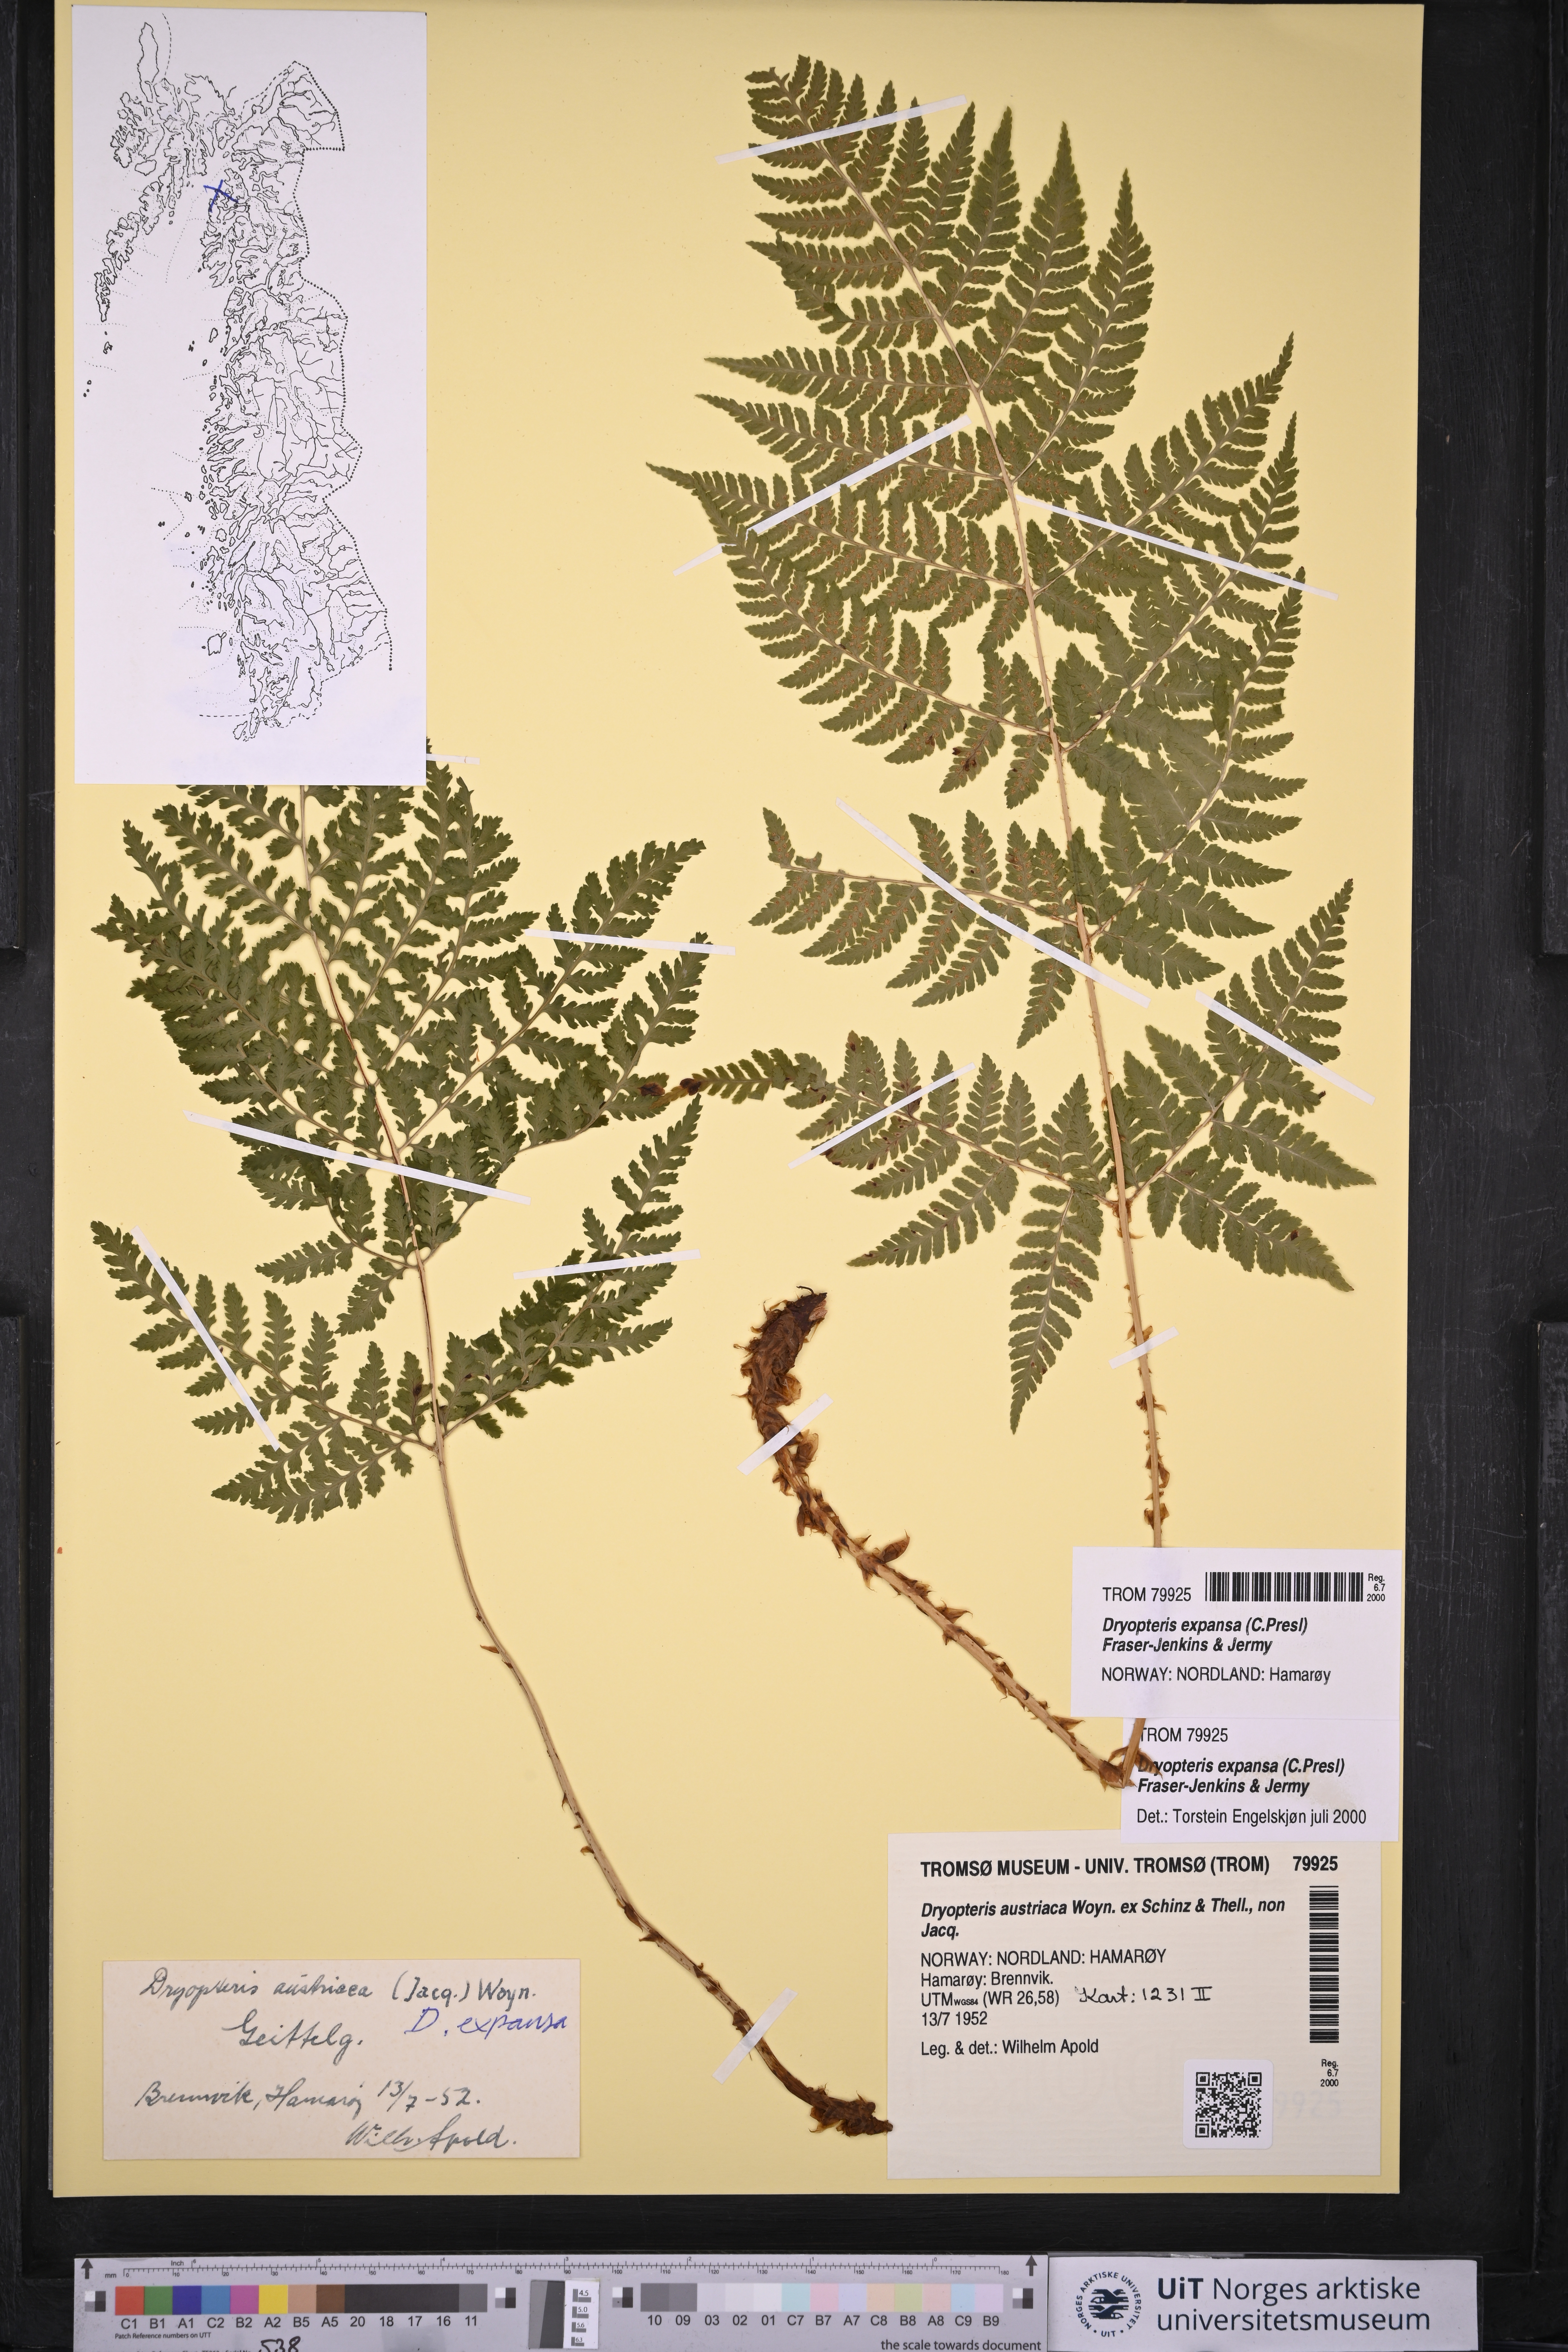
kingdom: Plantae
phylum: Tracheophyta
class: Polypodiopsida
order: Polypodiales
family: Dryopteridaceae
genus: Dryopteris
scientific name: Dryopteris expansa
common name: Northern buckler fern
